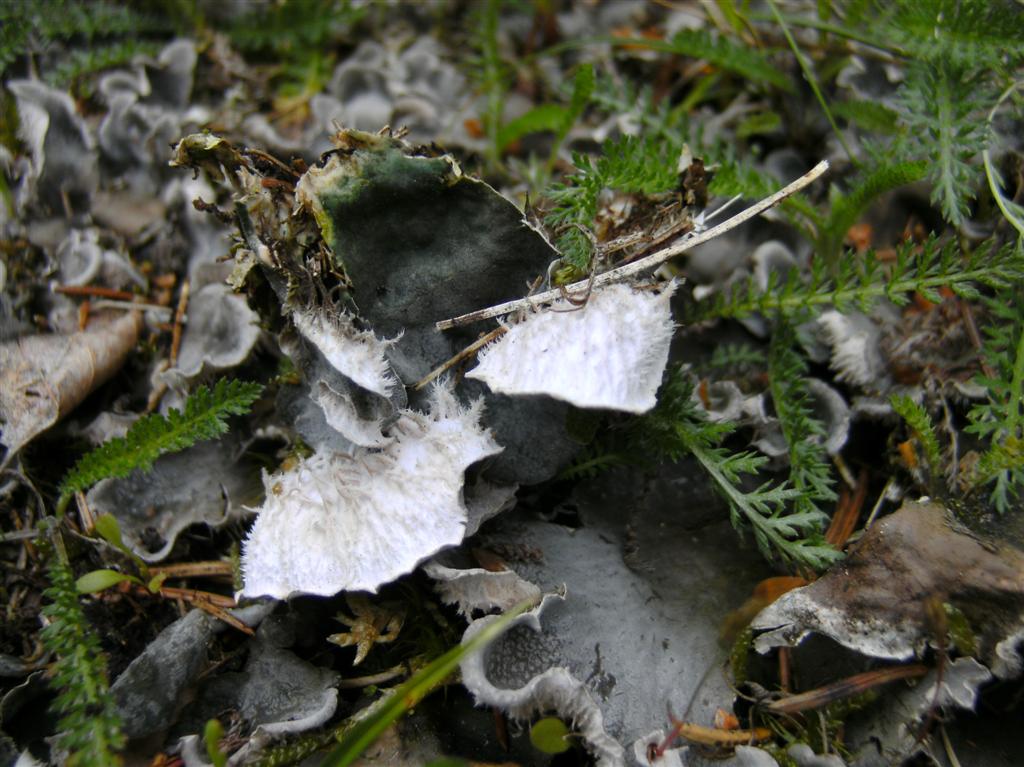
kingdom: Fungi
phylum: Ascomycota
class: Lecanoromycetes
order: Peltigerales
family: Peltigeraceae
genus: Peltigera
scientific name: Peltigera membranacea
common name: tynd skjoldlav
